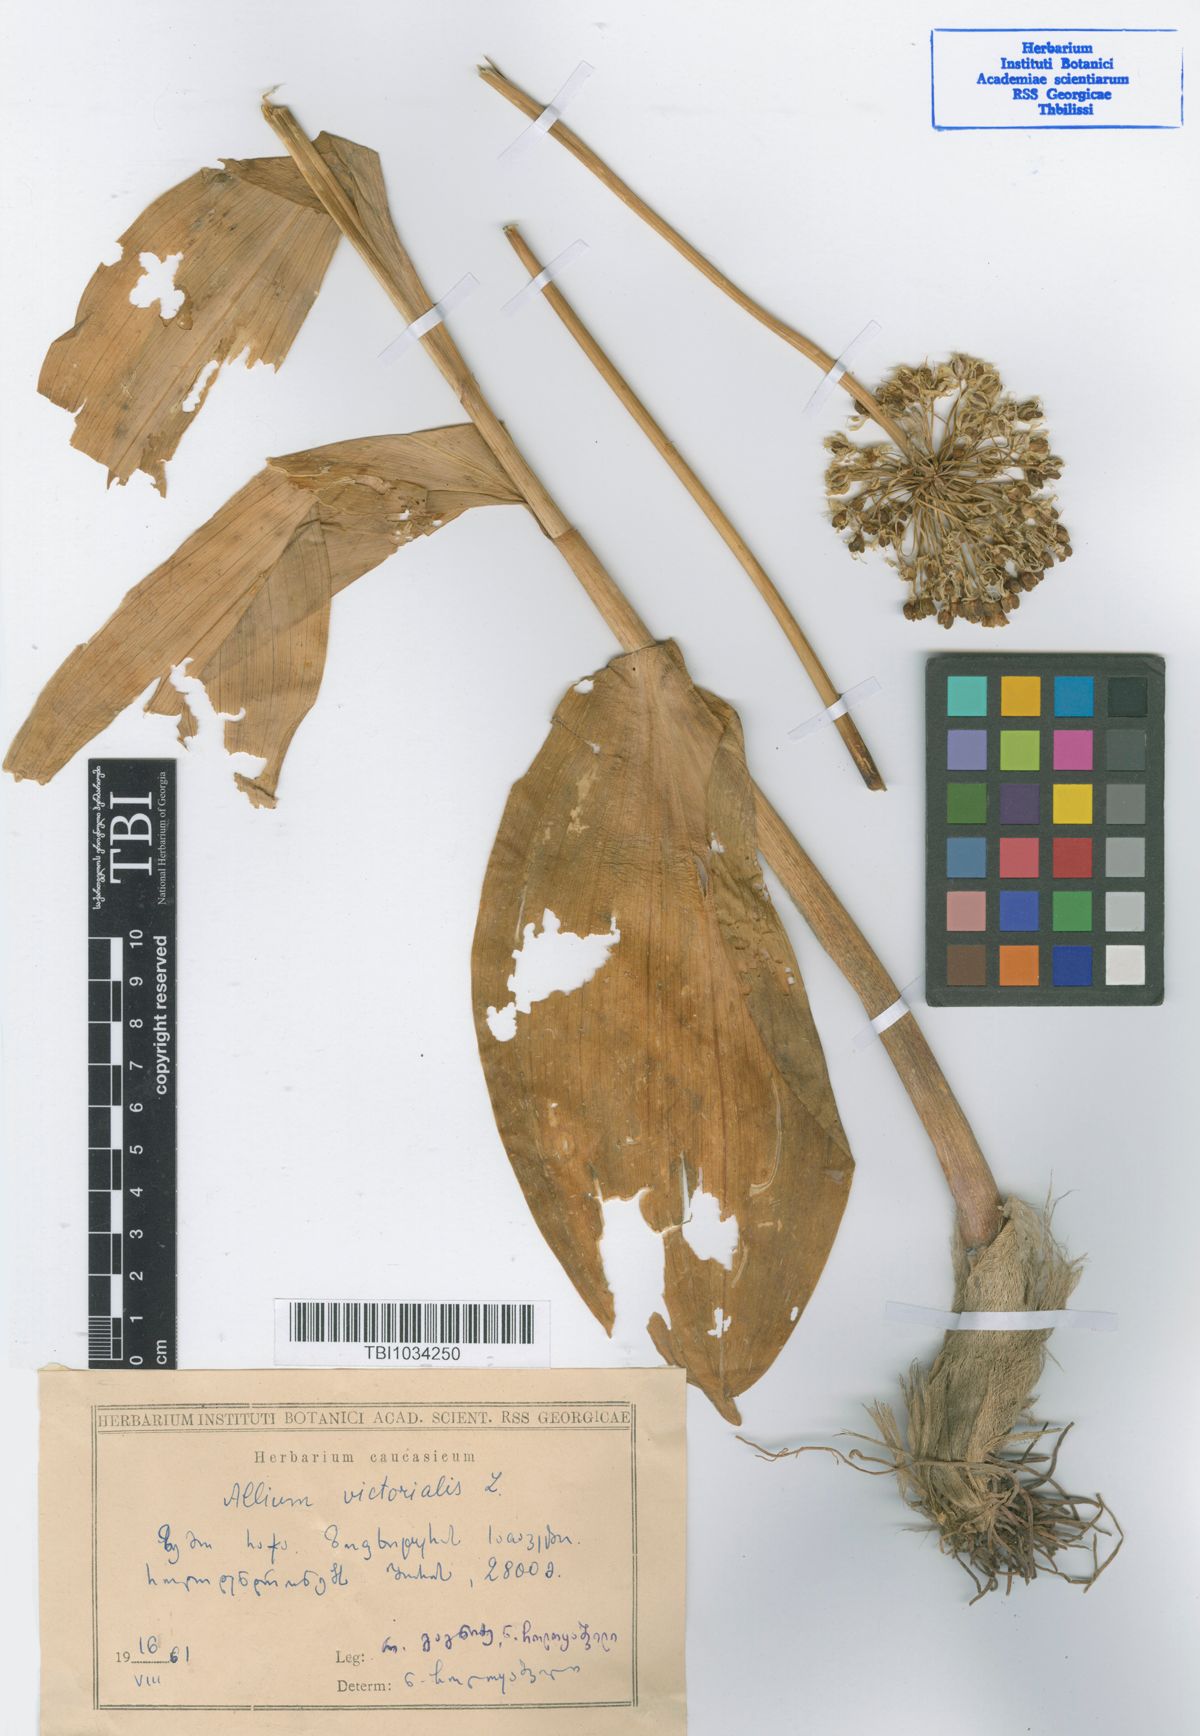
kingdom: Plantae
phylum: Tracheophyta
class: Liliopsida
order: Asparagales
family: Amaryllidaceae
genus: Allium
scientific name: Allium victorialis
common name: Alpine leek
